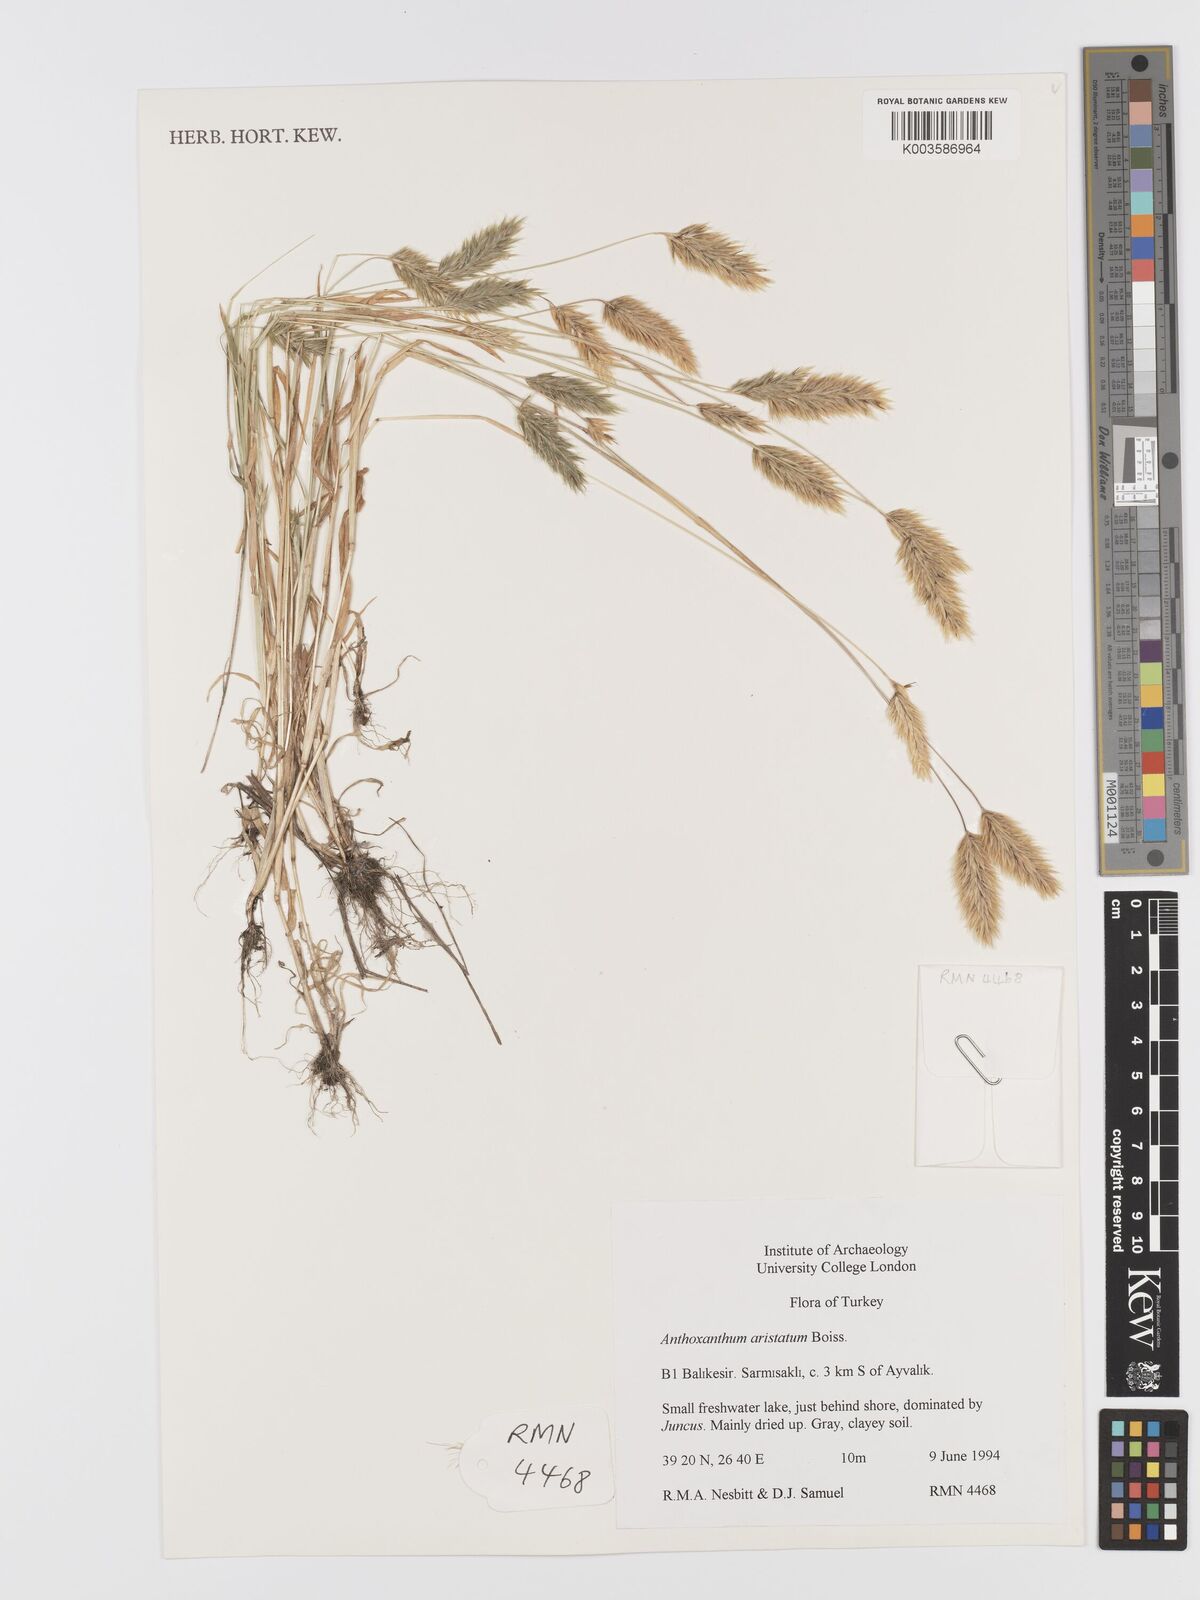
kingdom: Plantae
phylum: Tracheophyta
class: Liliopsida
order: Poales
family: Poaceae
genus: Anthoxanthum
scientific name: Anthoxanthum
